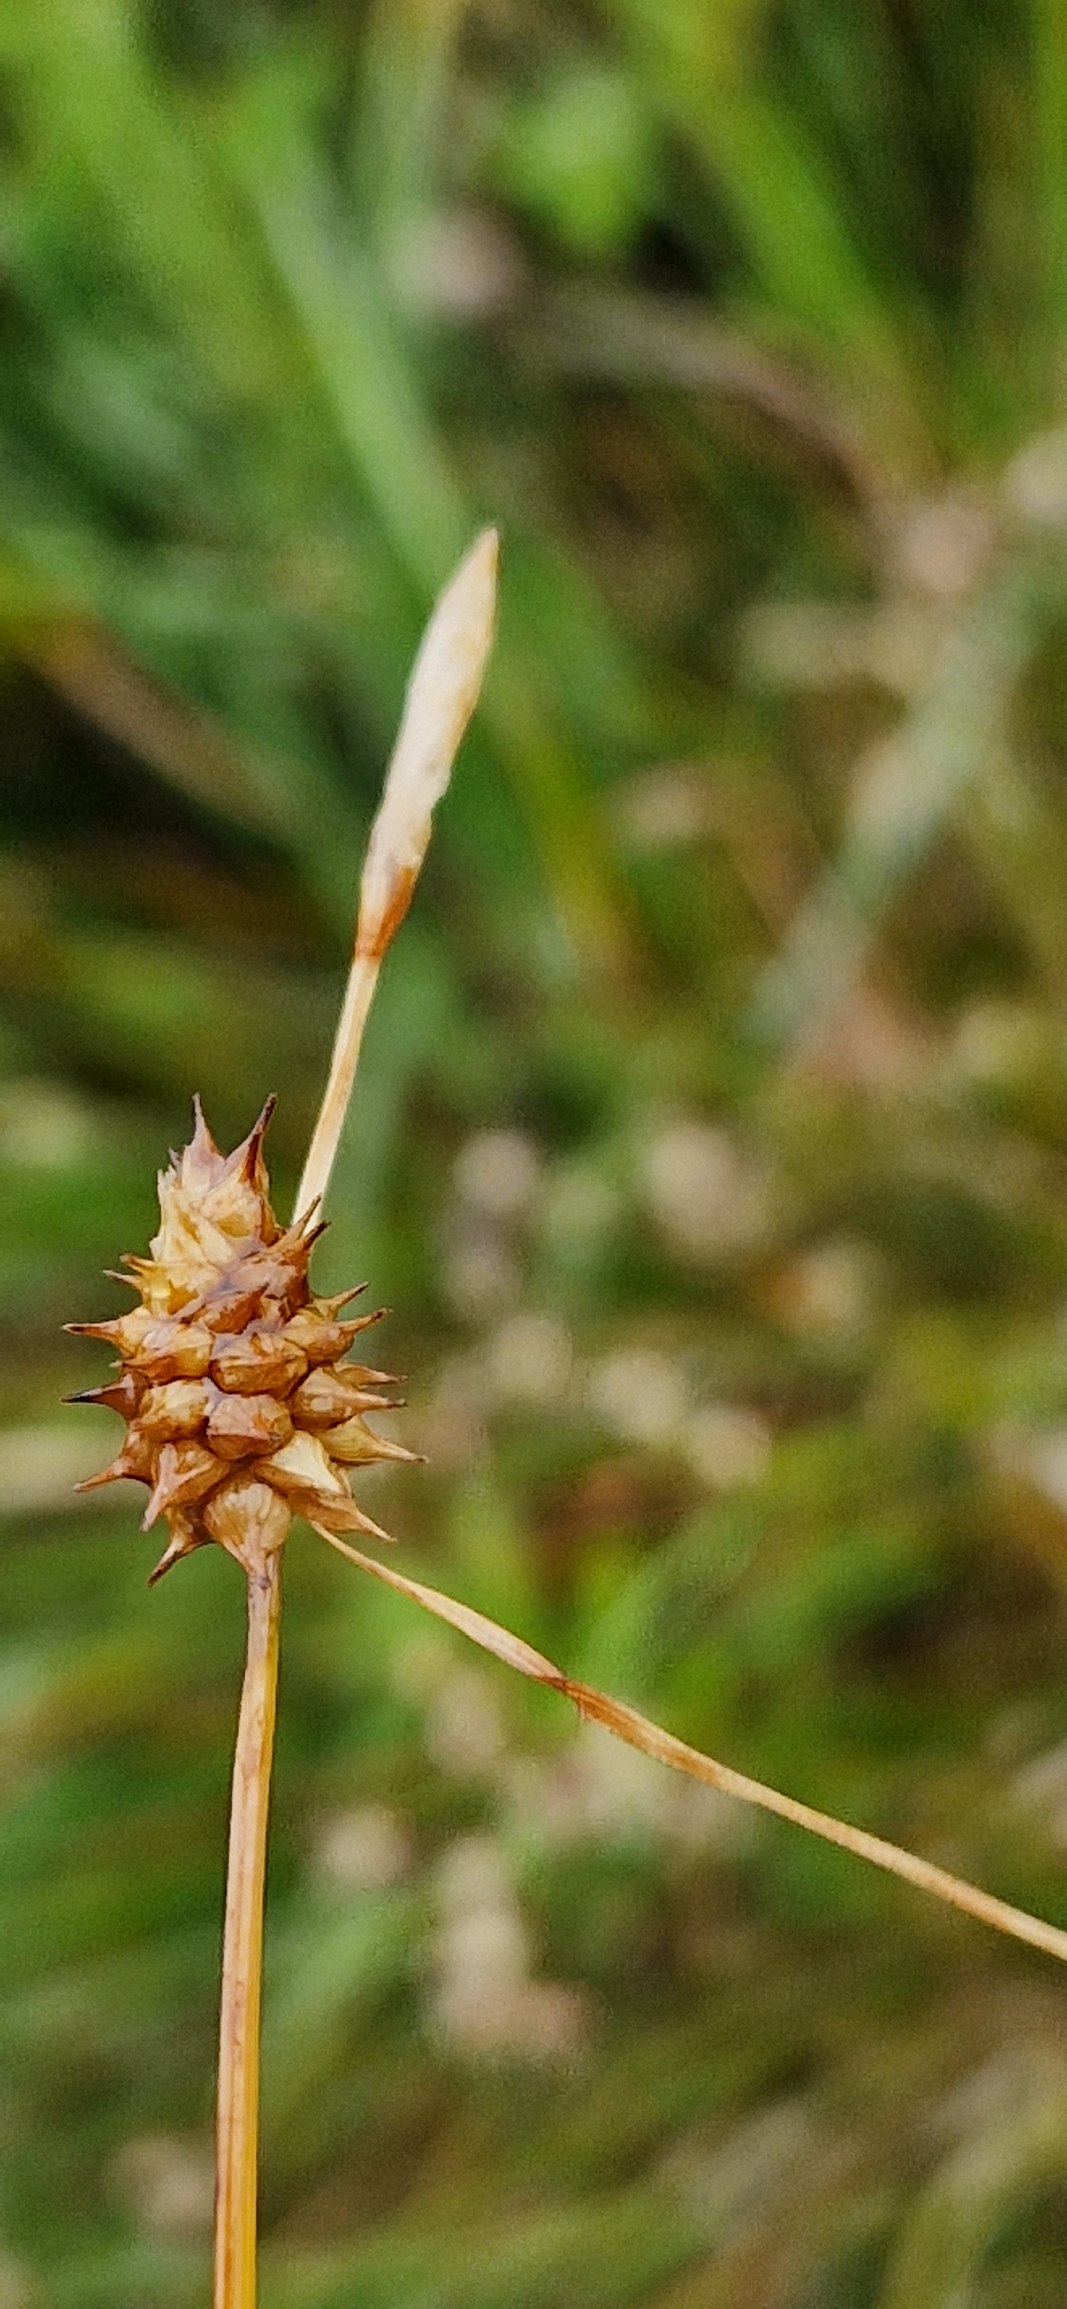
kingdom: Plantae
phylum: Tracheophyta
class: Liliopsida
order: Poales
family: Cyperaceae
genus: Carex
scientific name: Carex
